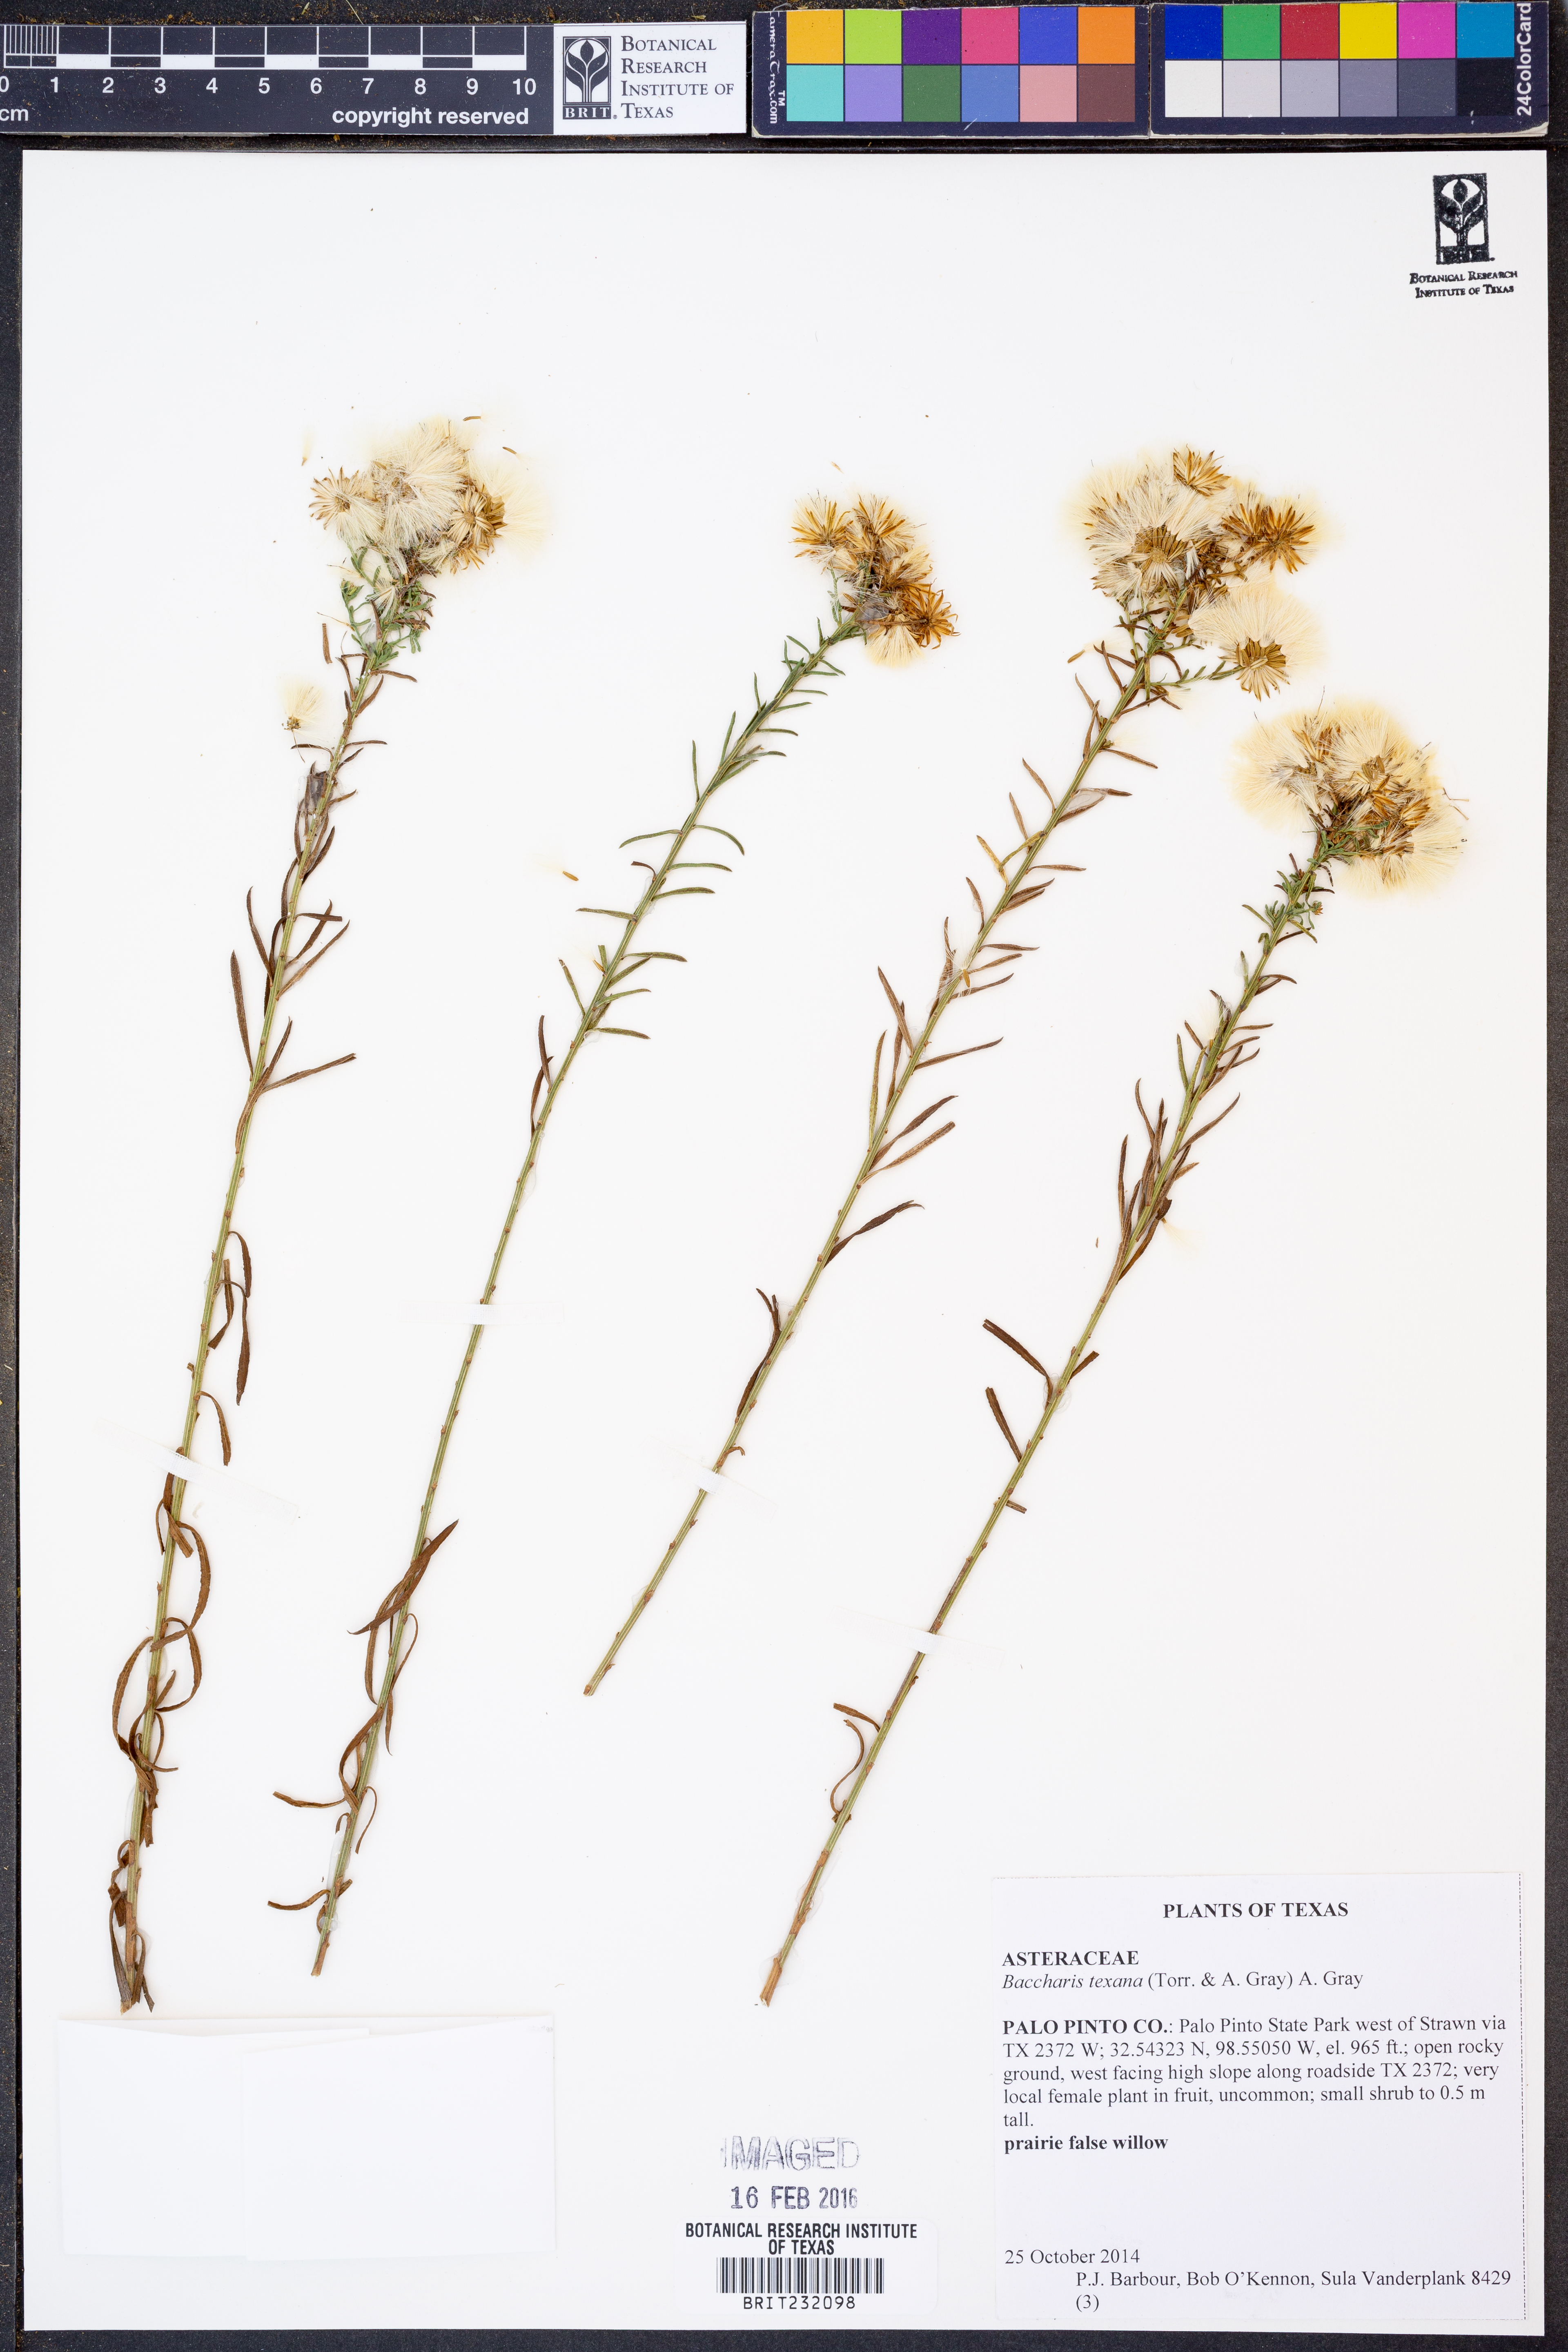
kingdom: Plantae
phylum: Tracheophyta
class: Magnoliopsida
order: Asterales
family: Asteraceae
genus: Baccharis
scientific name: Baccharis texana
